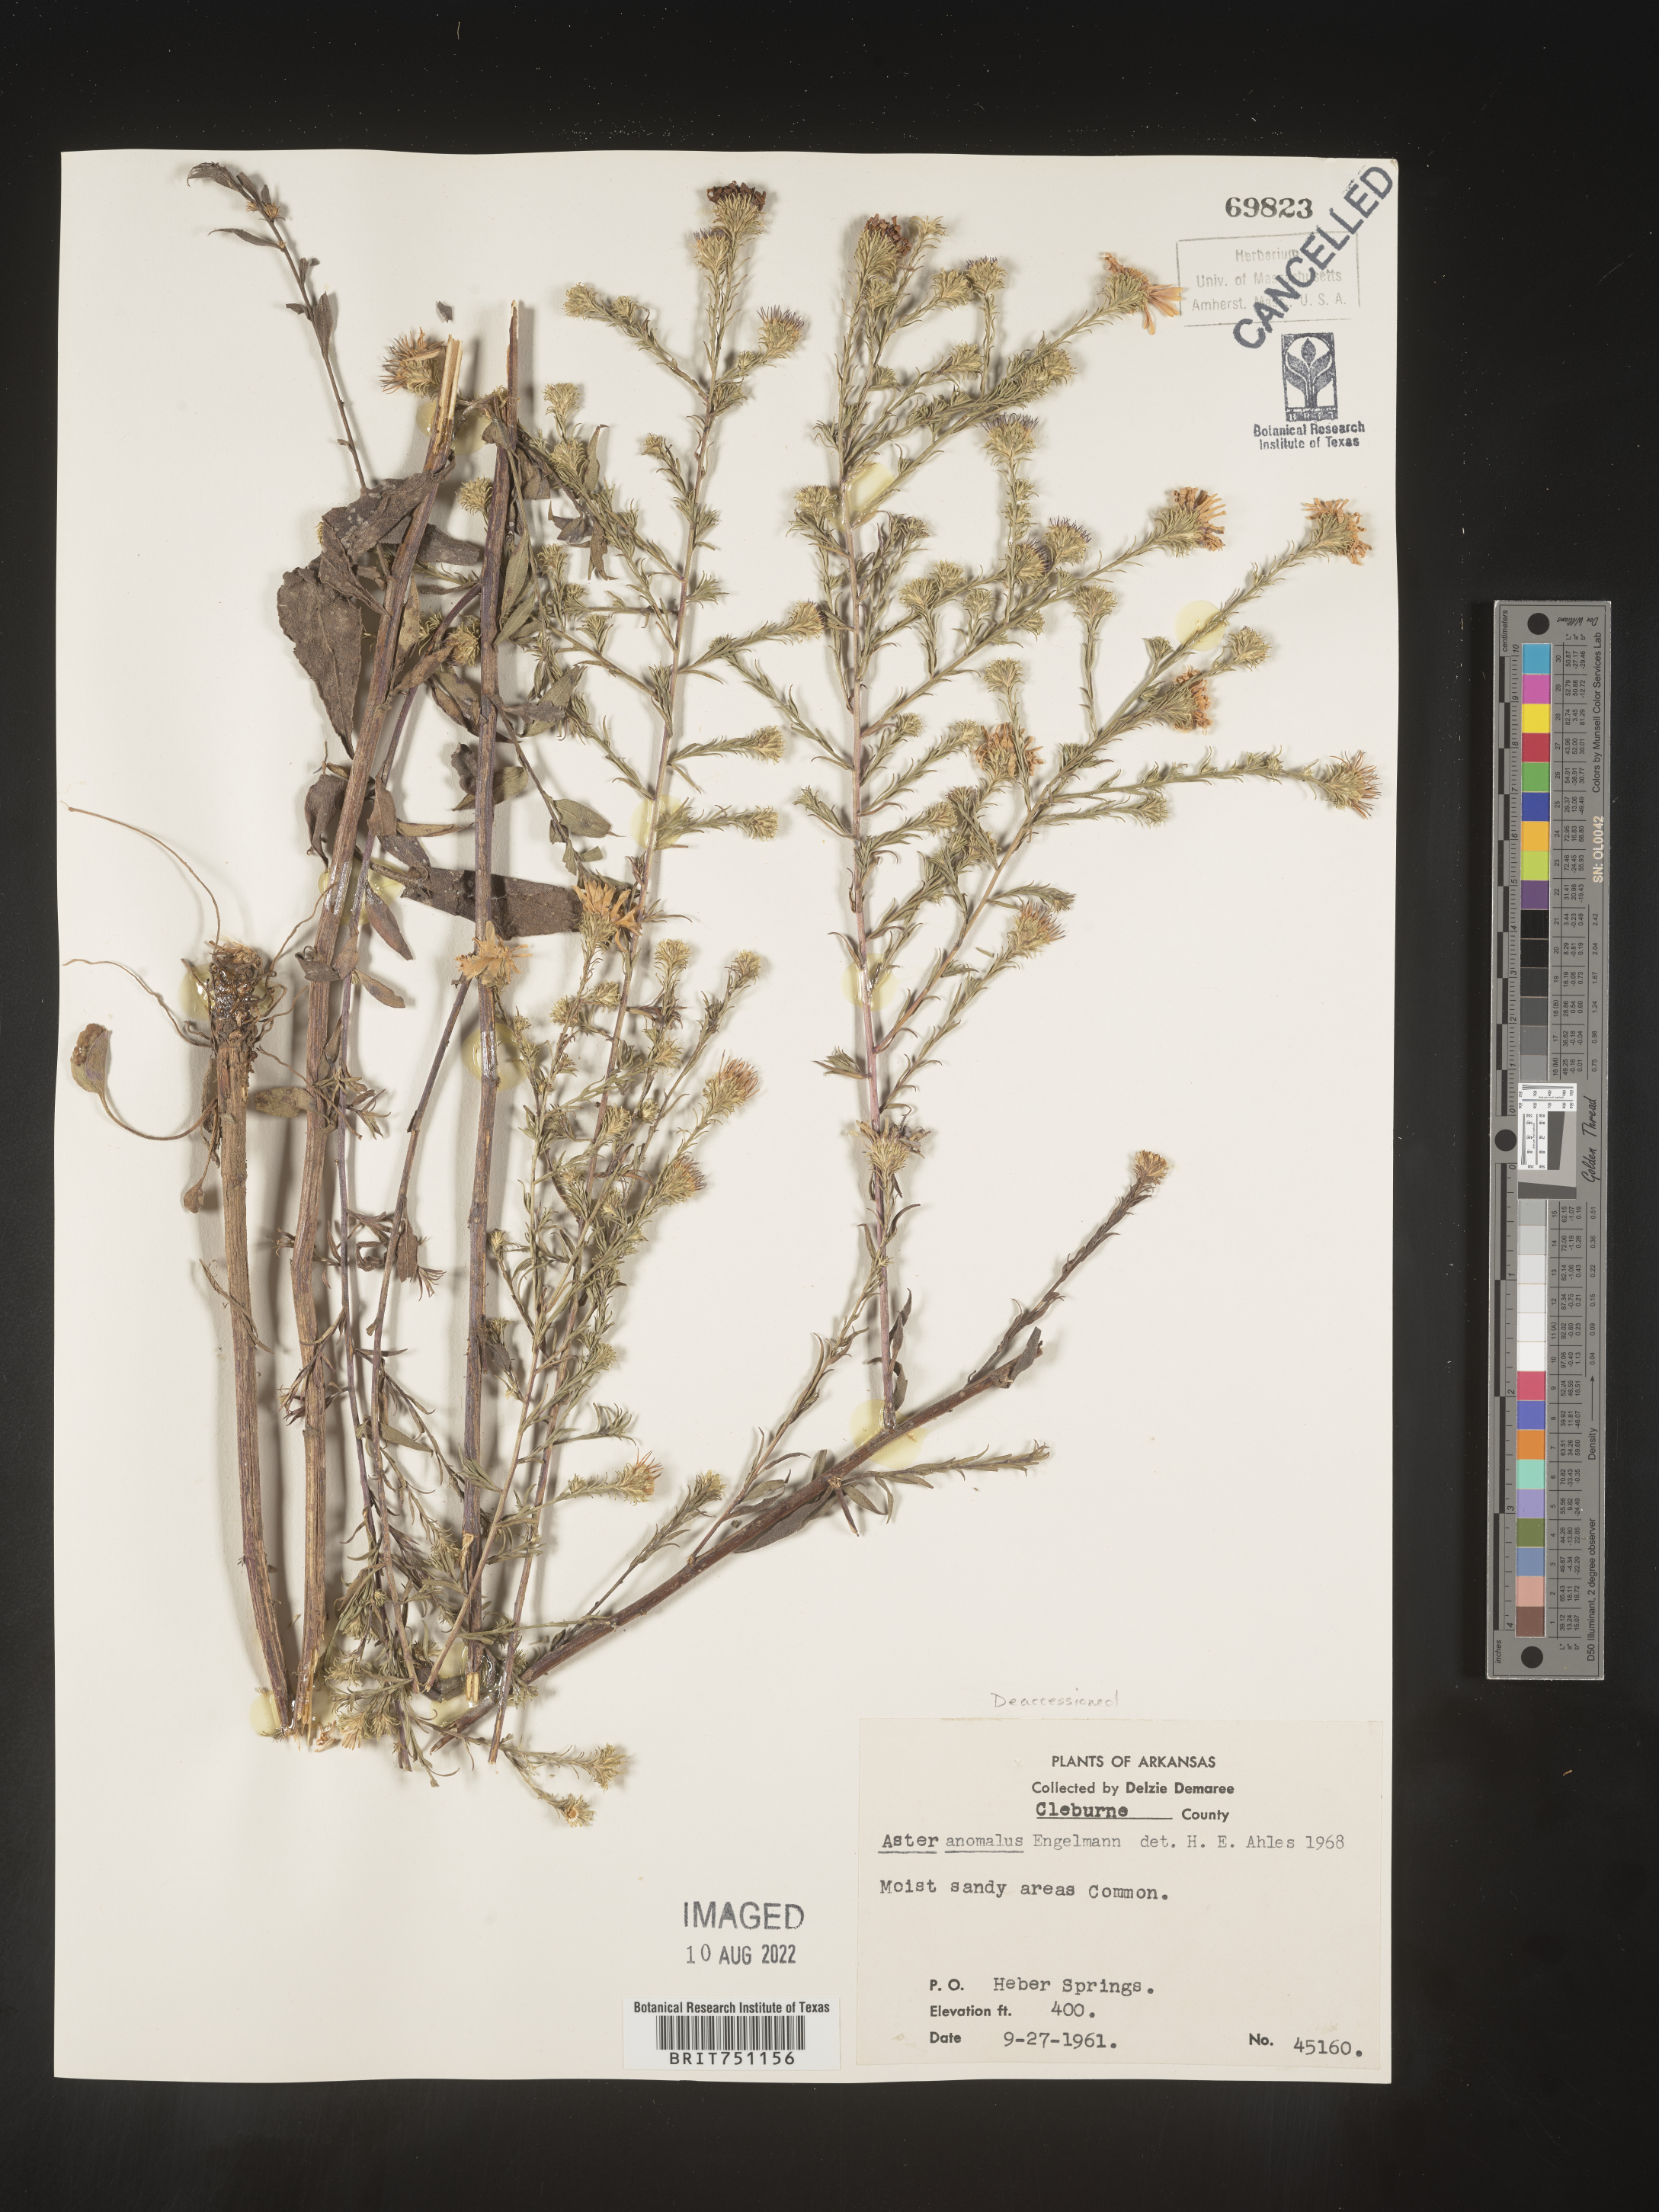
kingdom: Plantae
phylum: Tracheophyta
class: Magnoliopsida
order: Asterales
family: Asteraceae
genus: Symphyotrichum
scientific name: Symphyotrichum anomalum
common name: Many-ray aster
